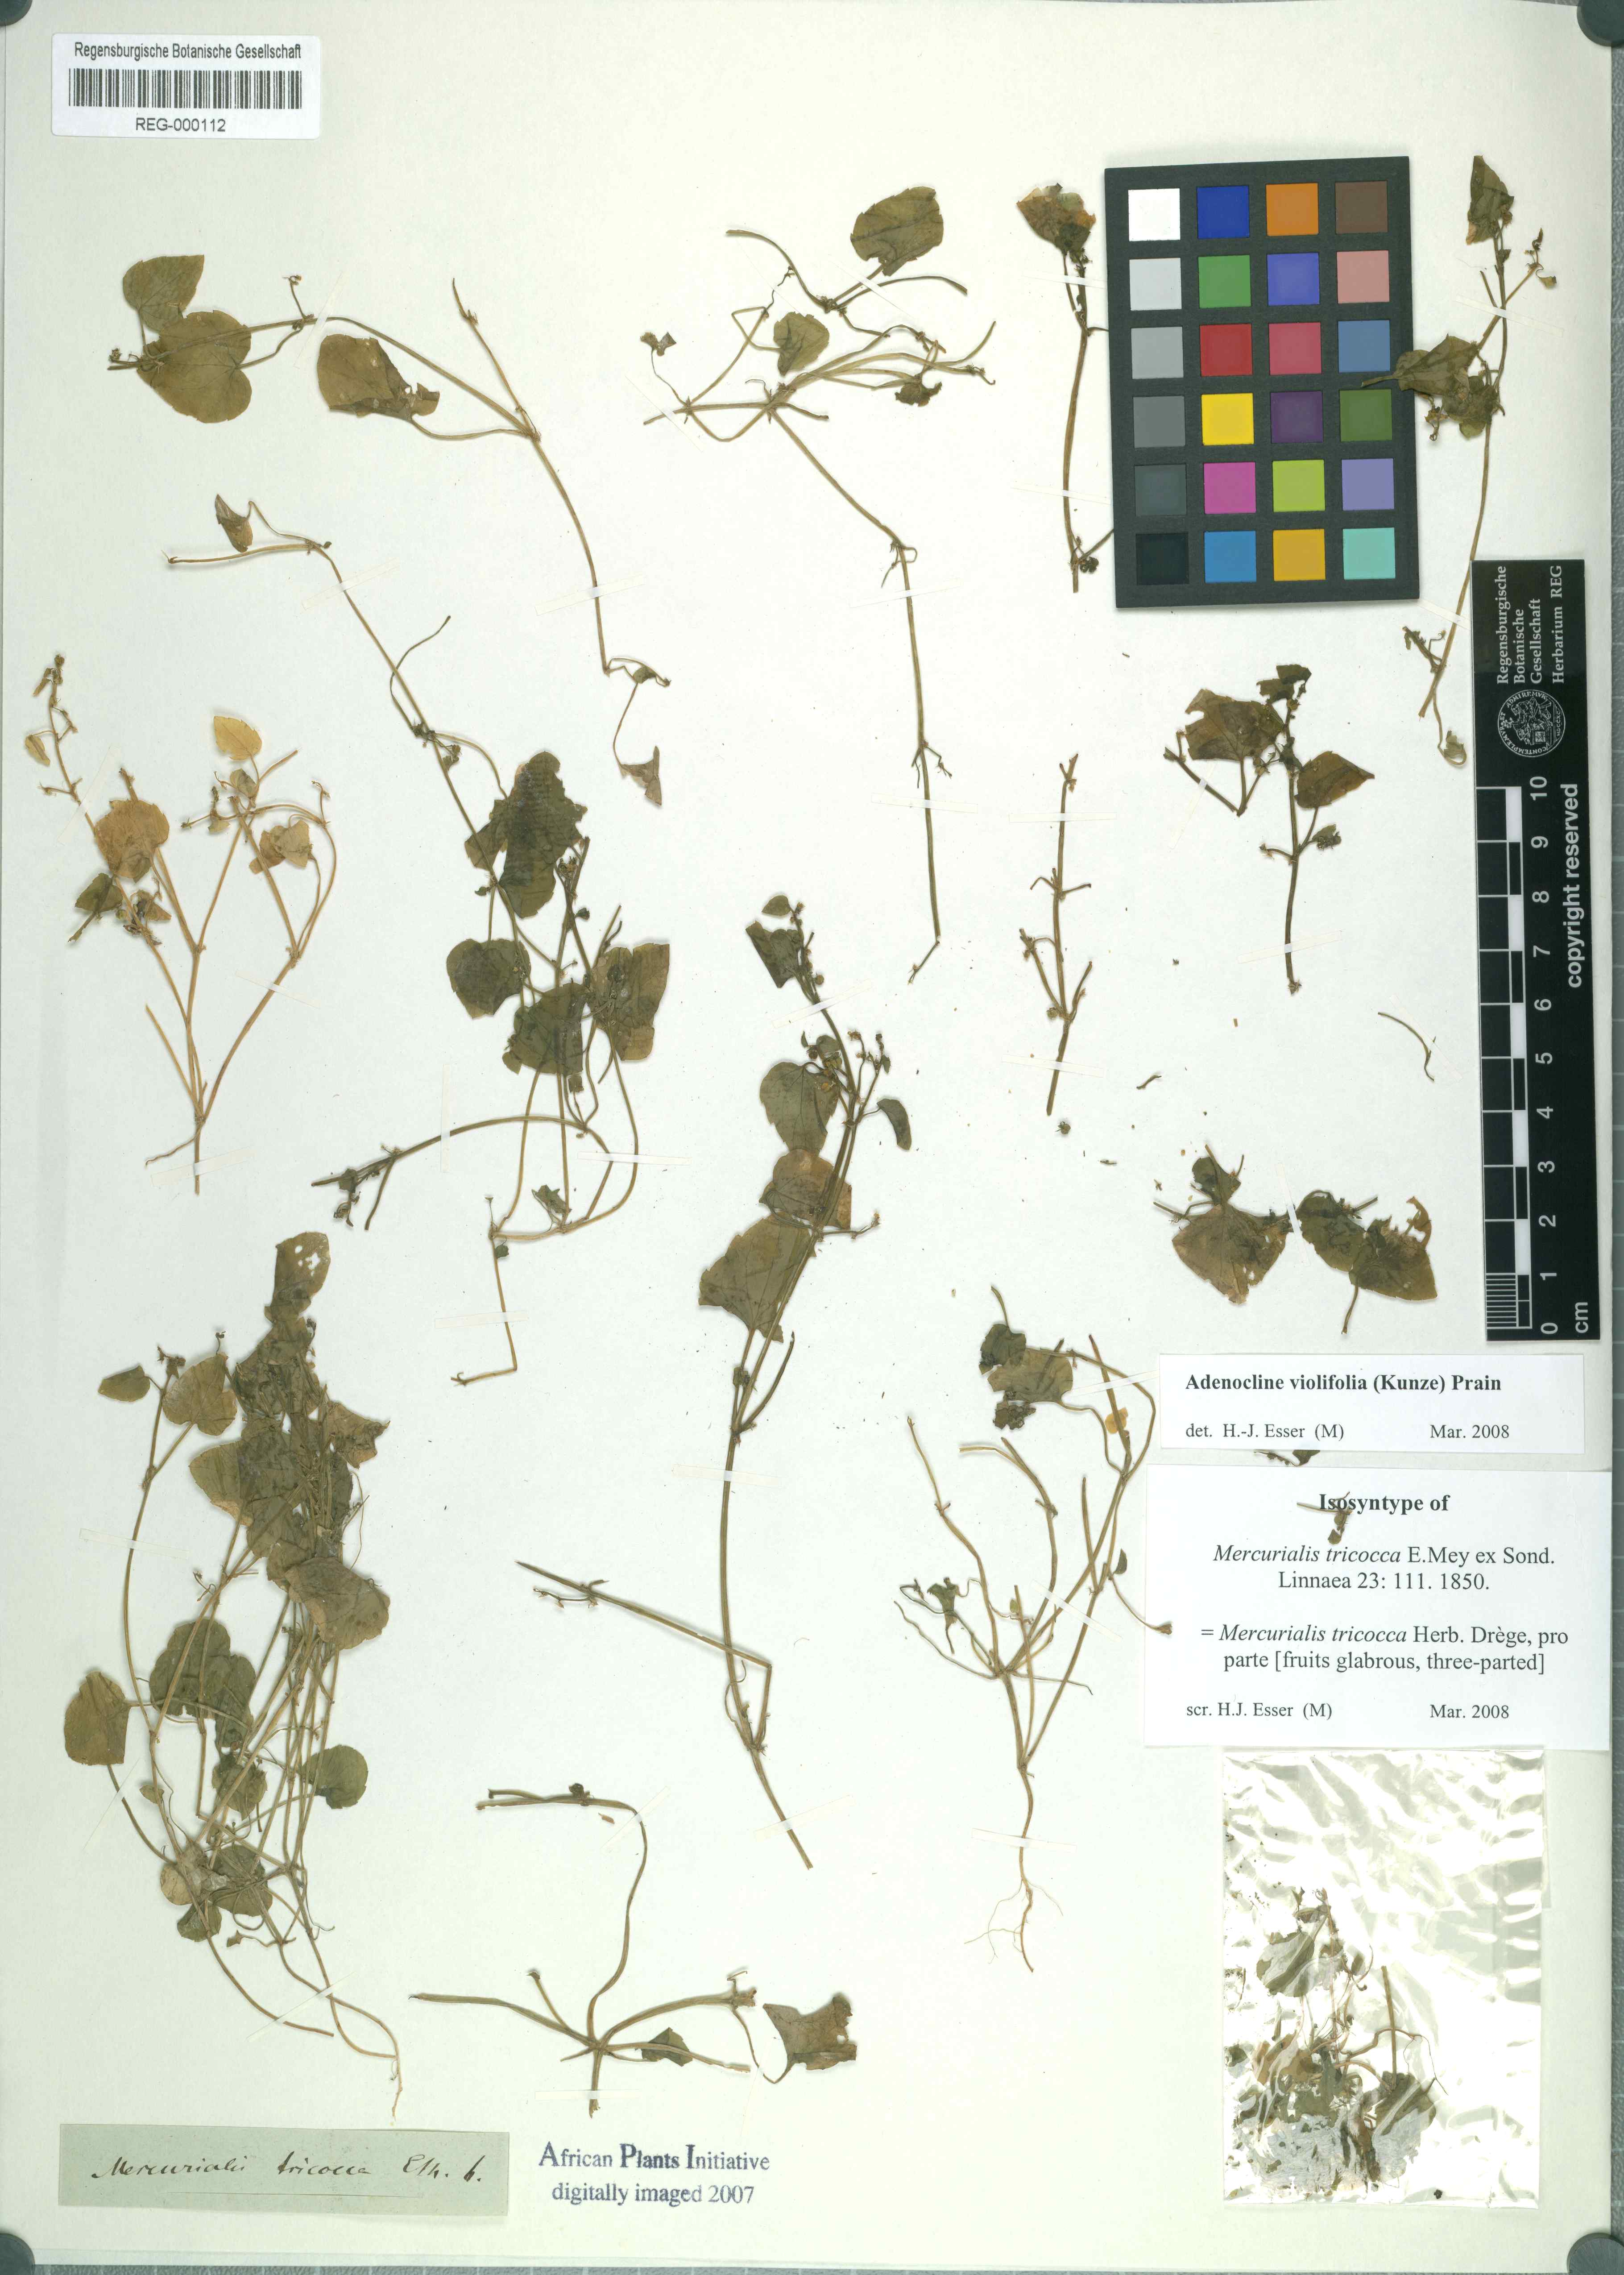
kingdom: Plantae
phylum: Tracheophyta
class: Magnoliopsida
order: Malpighiales
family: Euphorbiaceae
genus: Adenocline
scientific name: Adenocline violifolia
